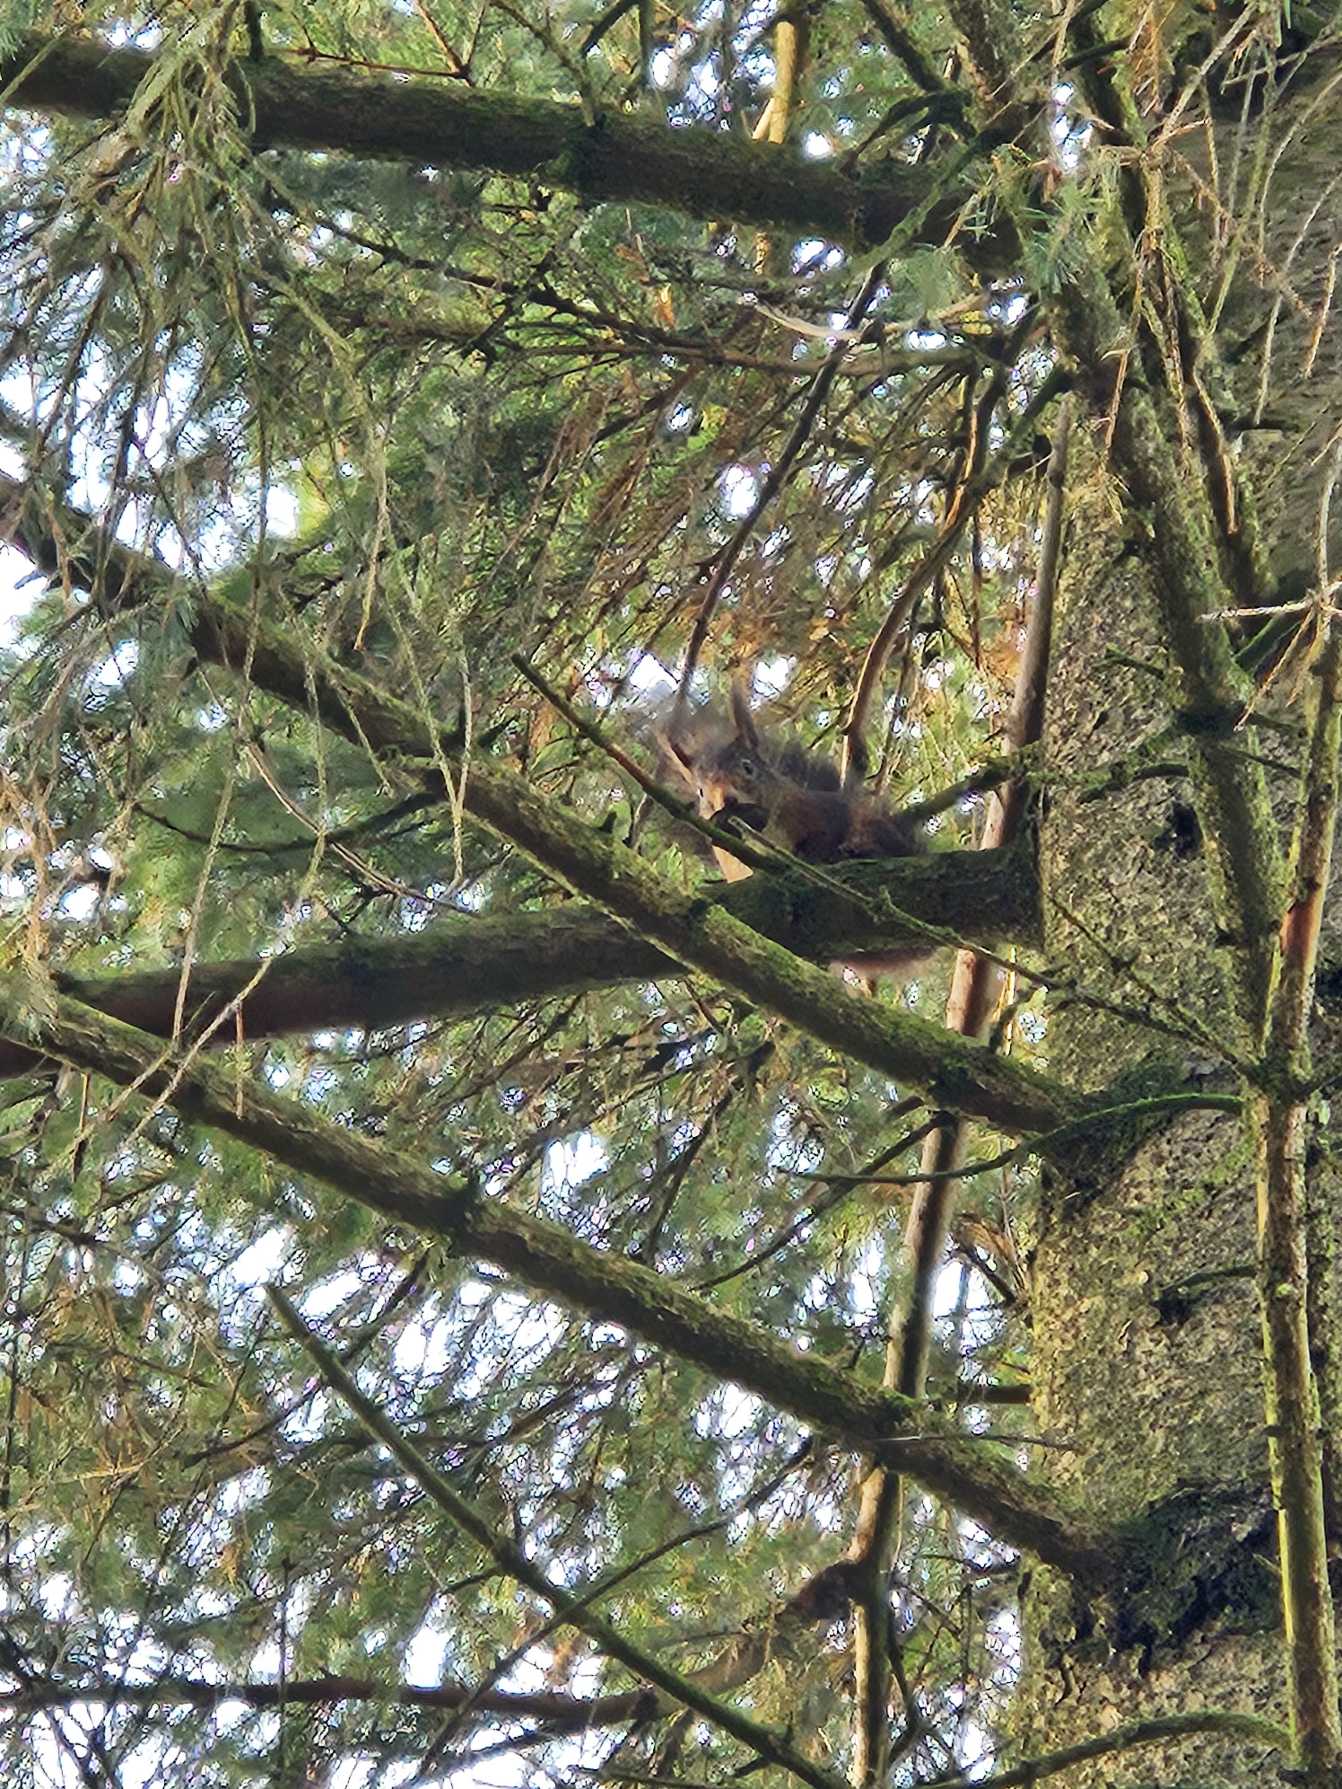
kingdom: Animalia
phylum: Chordata
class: Mammalia
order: Rodentia
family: Sciuridae
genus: Sciurus
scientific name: Sciurus vulgaris
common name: Egern
